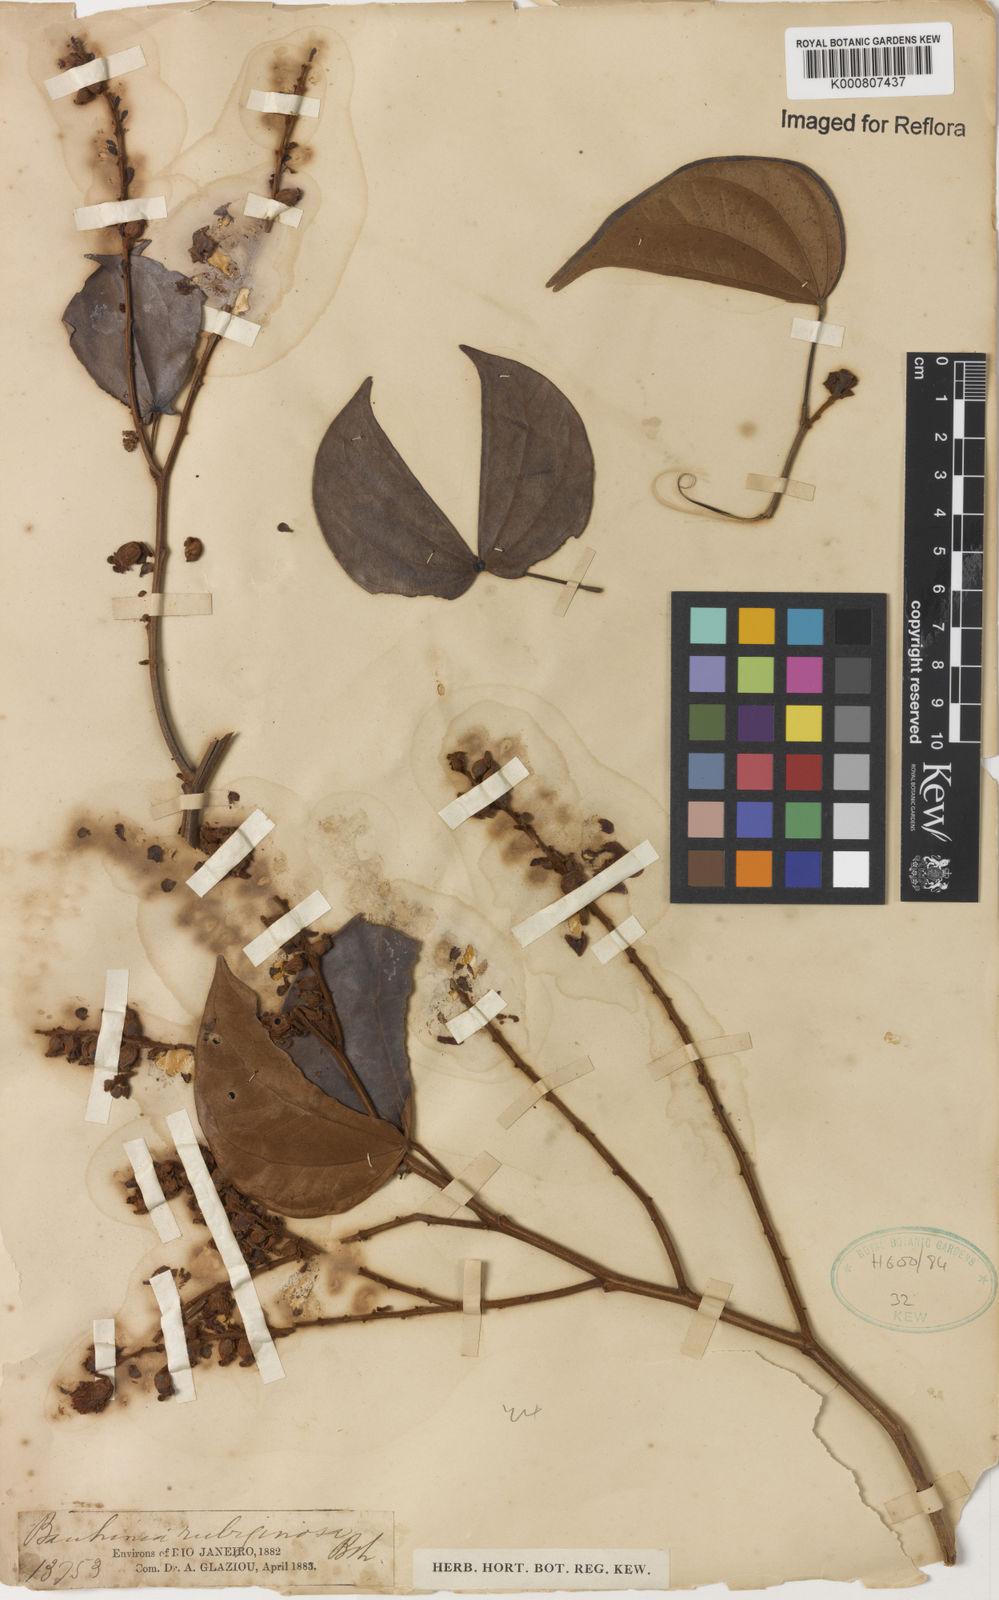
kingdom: Plantae
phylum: Tracheophyta
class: Magnoliopsida
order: Fabales
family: Fabaceae
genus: Schnella
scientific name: Schnella outimouta
